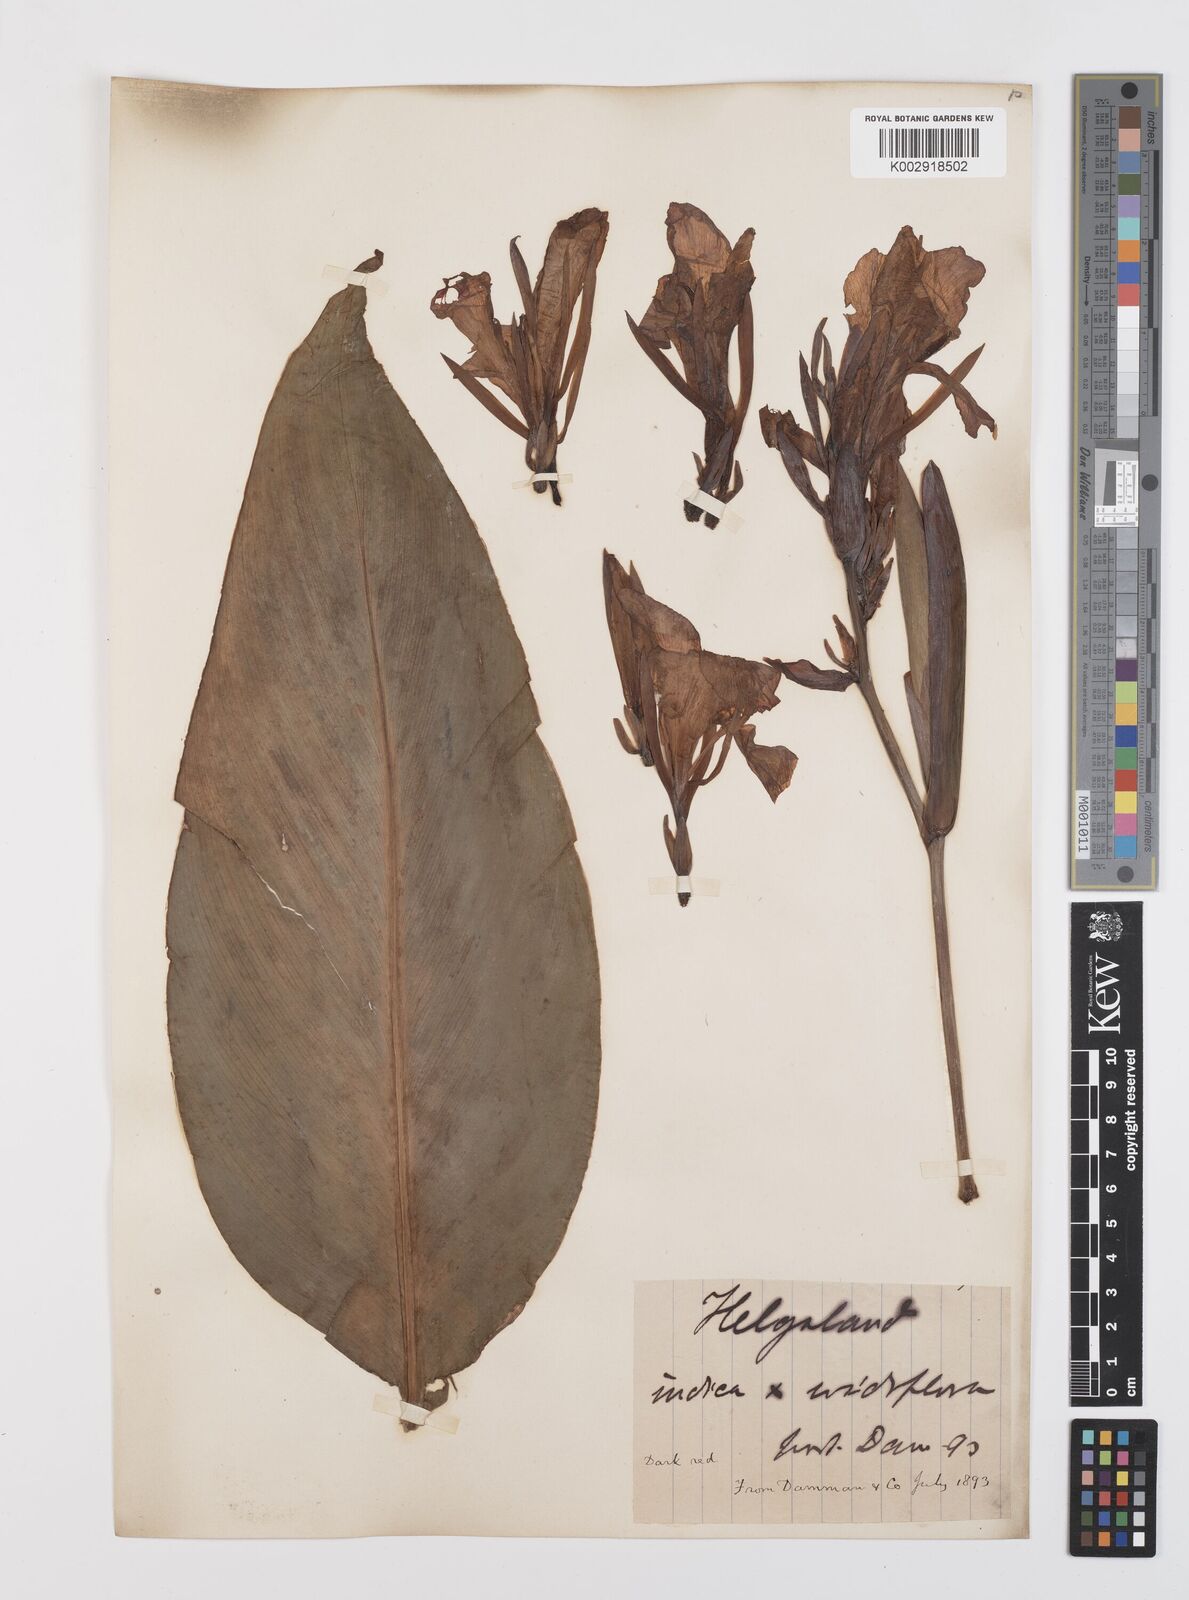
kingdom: Plantae
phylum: Tracheophyta
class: Liliopsida
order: Zingiberales
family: Cannaceae
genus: Canna
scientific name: Canna indica
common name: Indian shot
